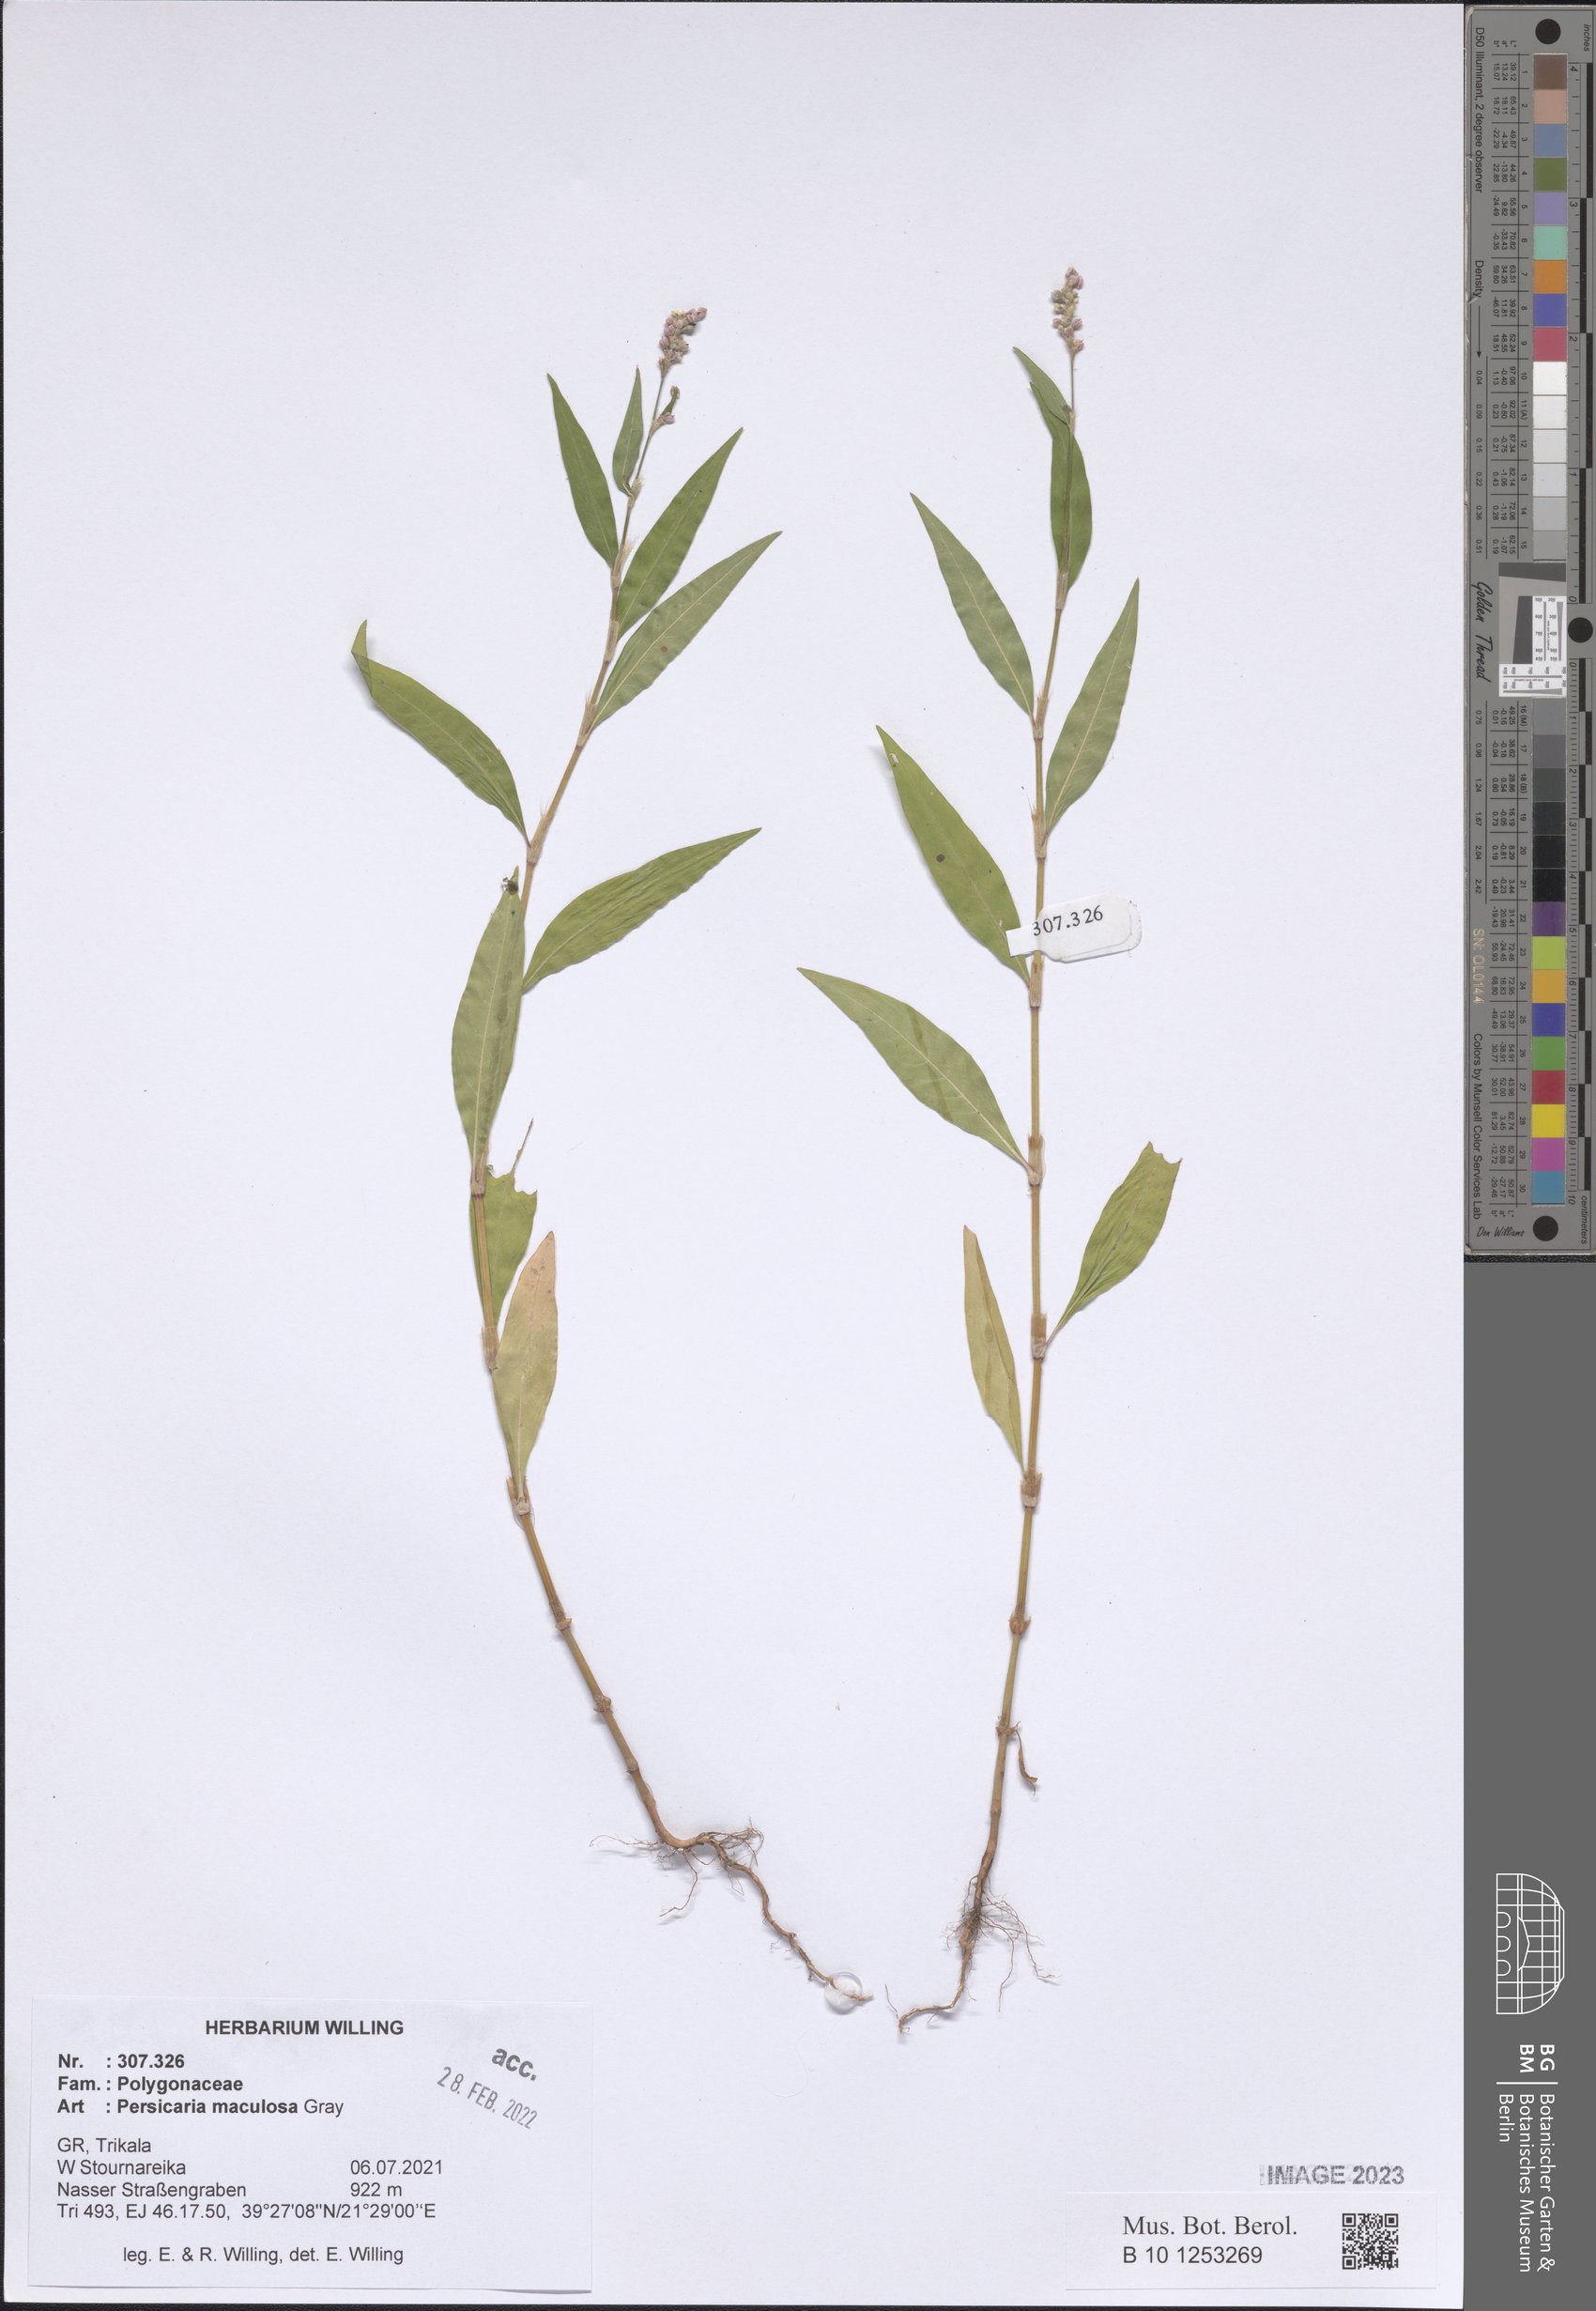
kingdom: Plantae
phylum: Tracheophyta
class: Magnoliopsida
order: Caryophyllales
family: Polygonaceae
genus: Persicaria
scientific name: Persicaria maculosa
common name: Redshank
